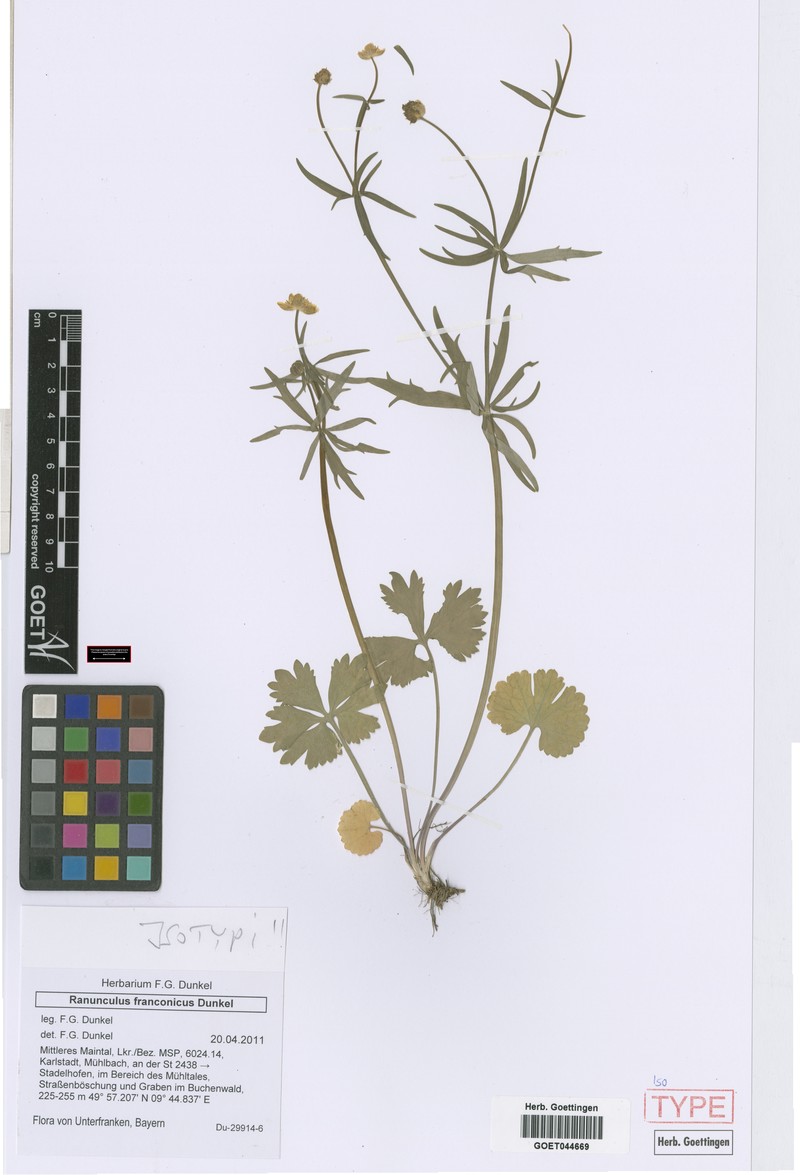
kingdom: Plantae
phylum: Tracheophyta
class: Magnoliopsida
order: Ranunculales
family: Ranunculaceae
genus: Ranunculus
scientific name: Ranunculus franconicus
